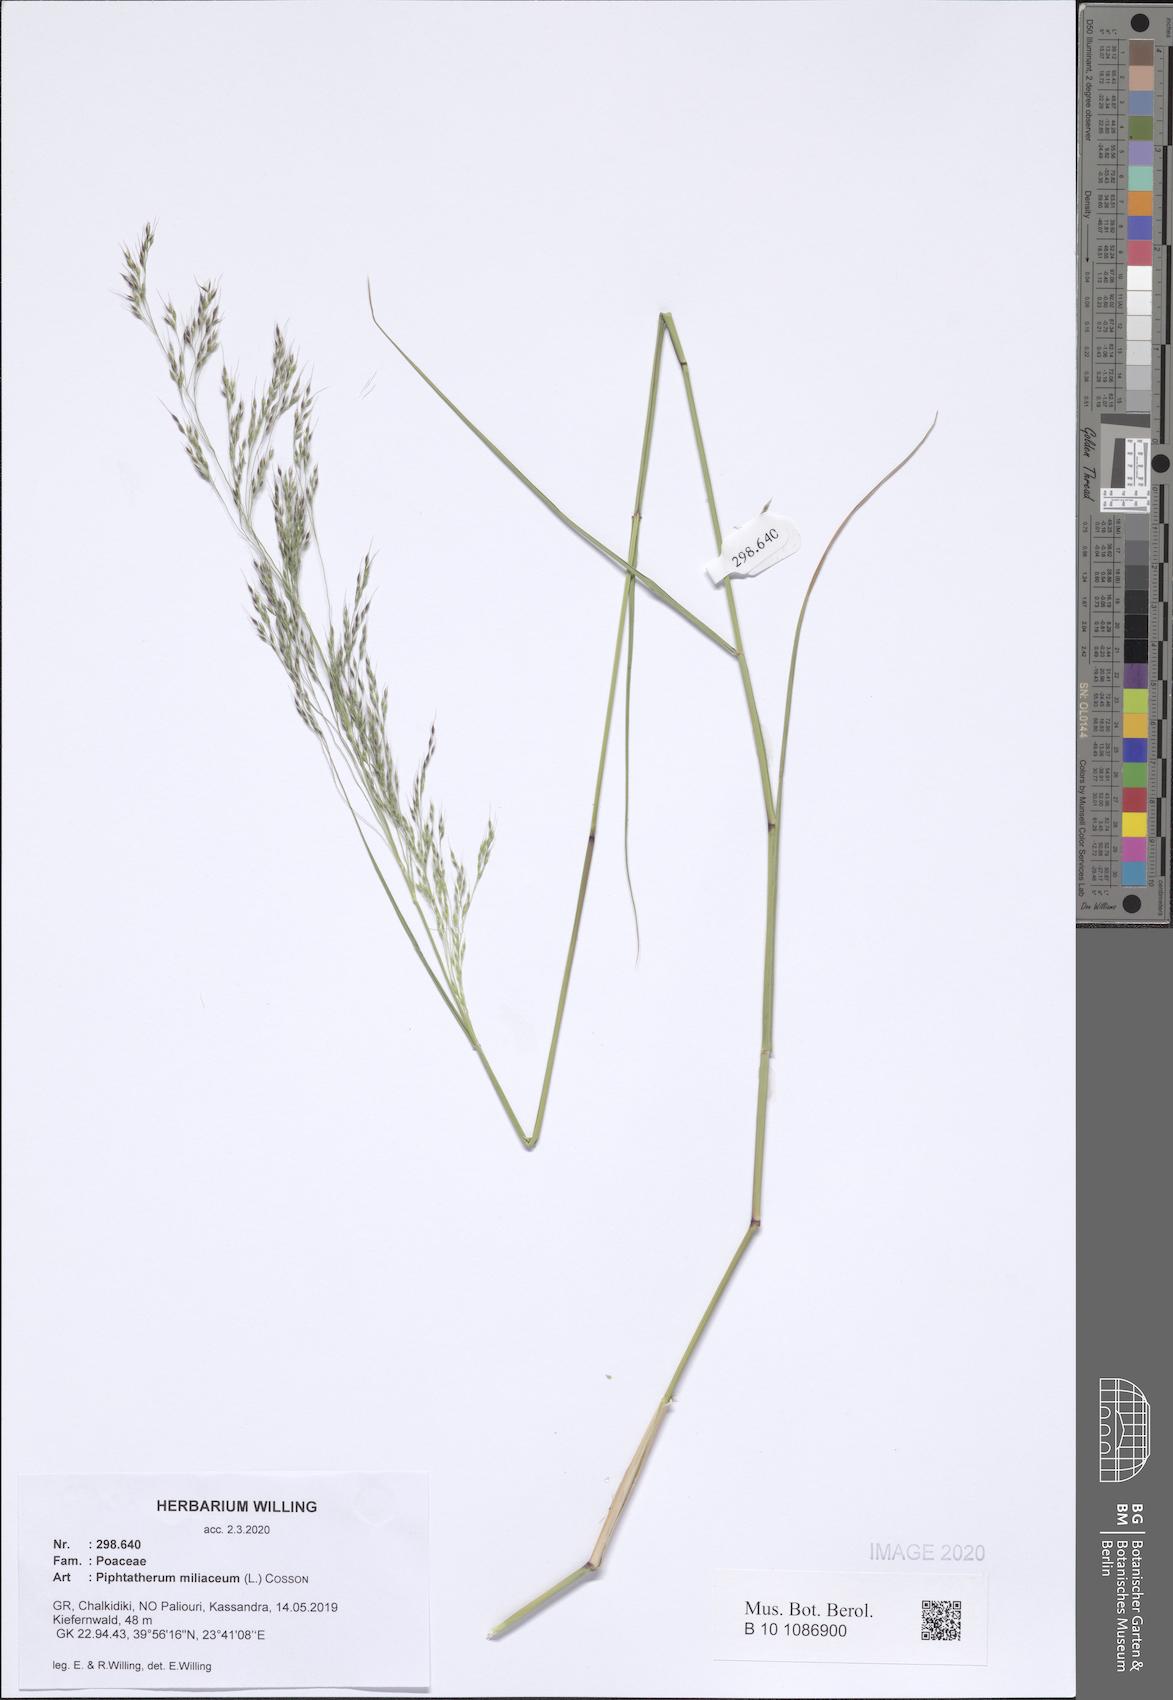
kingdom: Plantae
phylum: Tracheophyta
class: Liliopsida
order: Poales
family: Poaceae
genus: Oloptum
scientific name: Oloptum miliaceum
